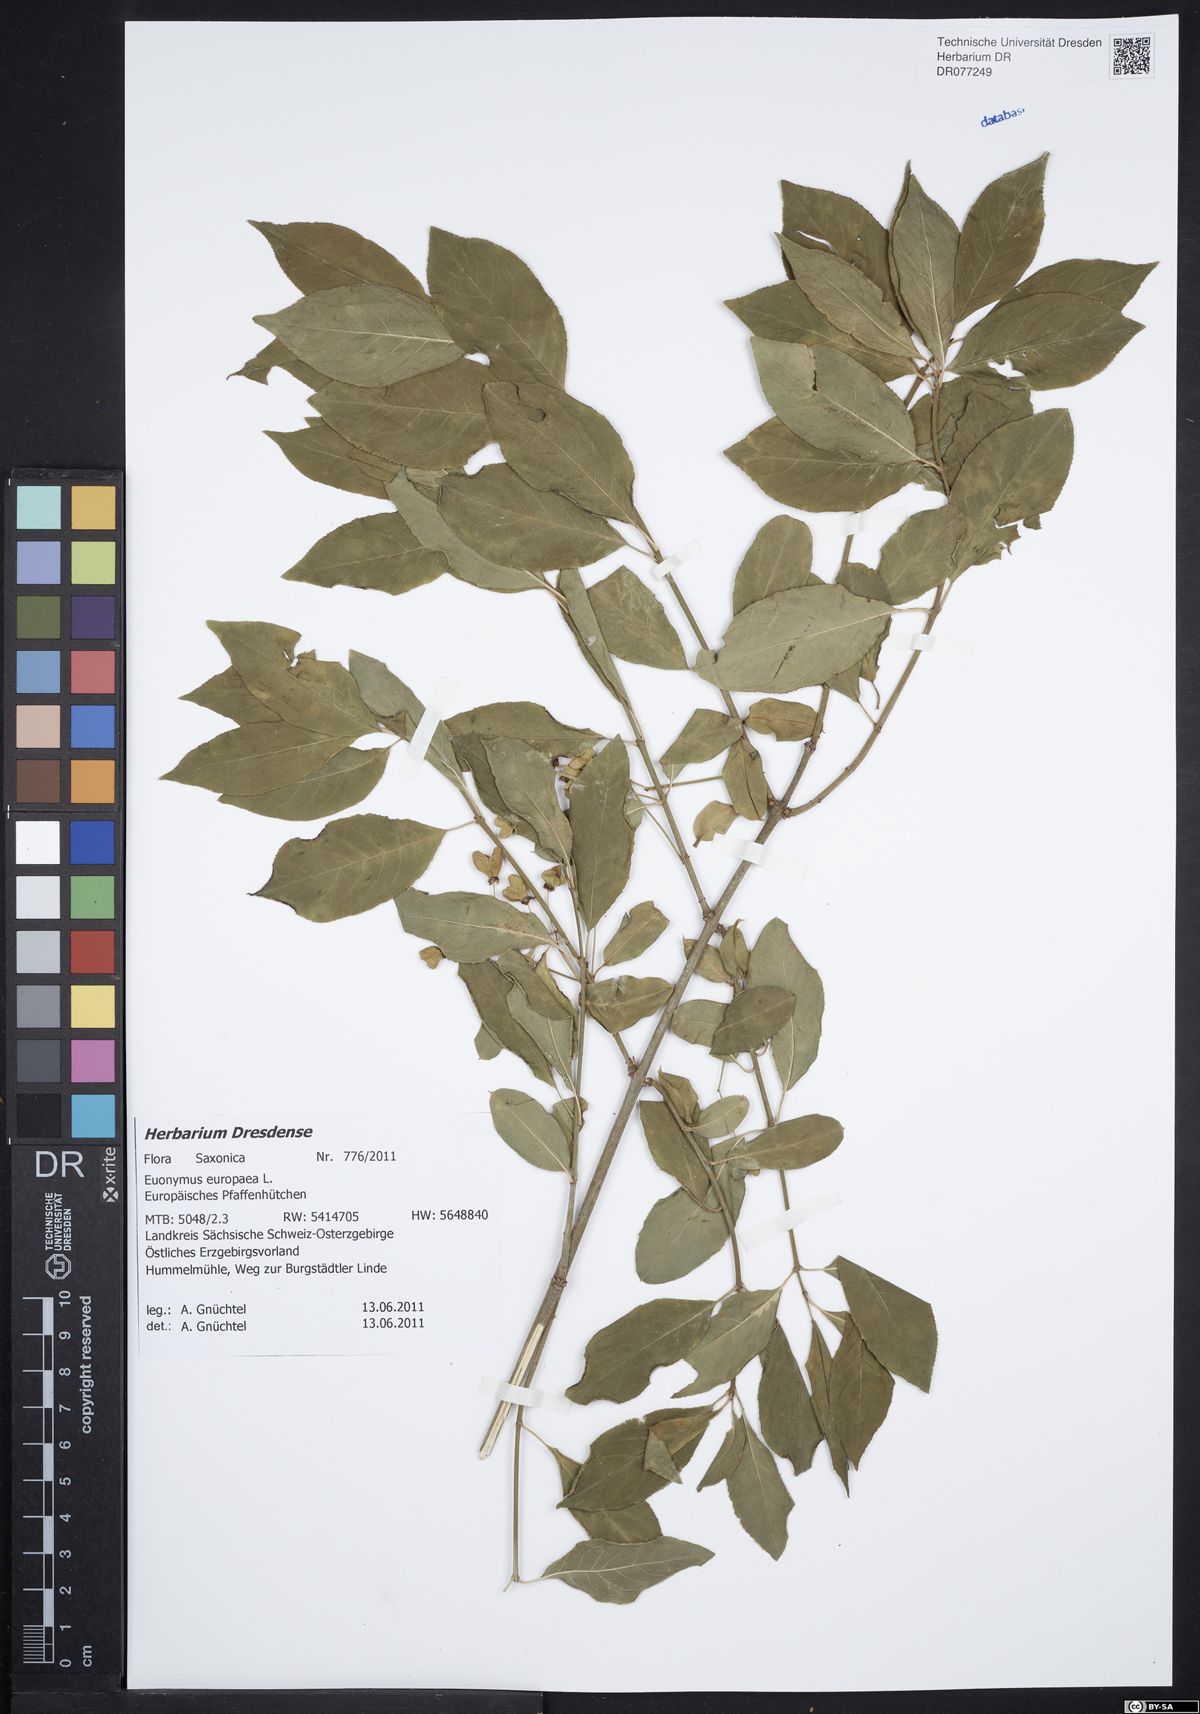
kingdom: Plantae
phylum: Tracheophyta
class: Magnoliopsida
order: Celastrales
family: Celastraceae
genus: Euonymus
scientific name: Euonymus europaeus
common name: Spindle
